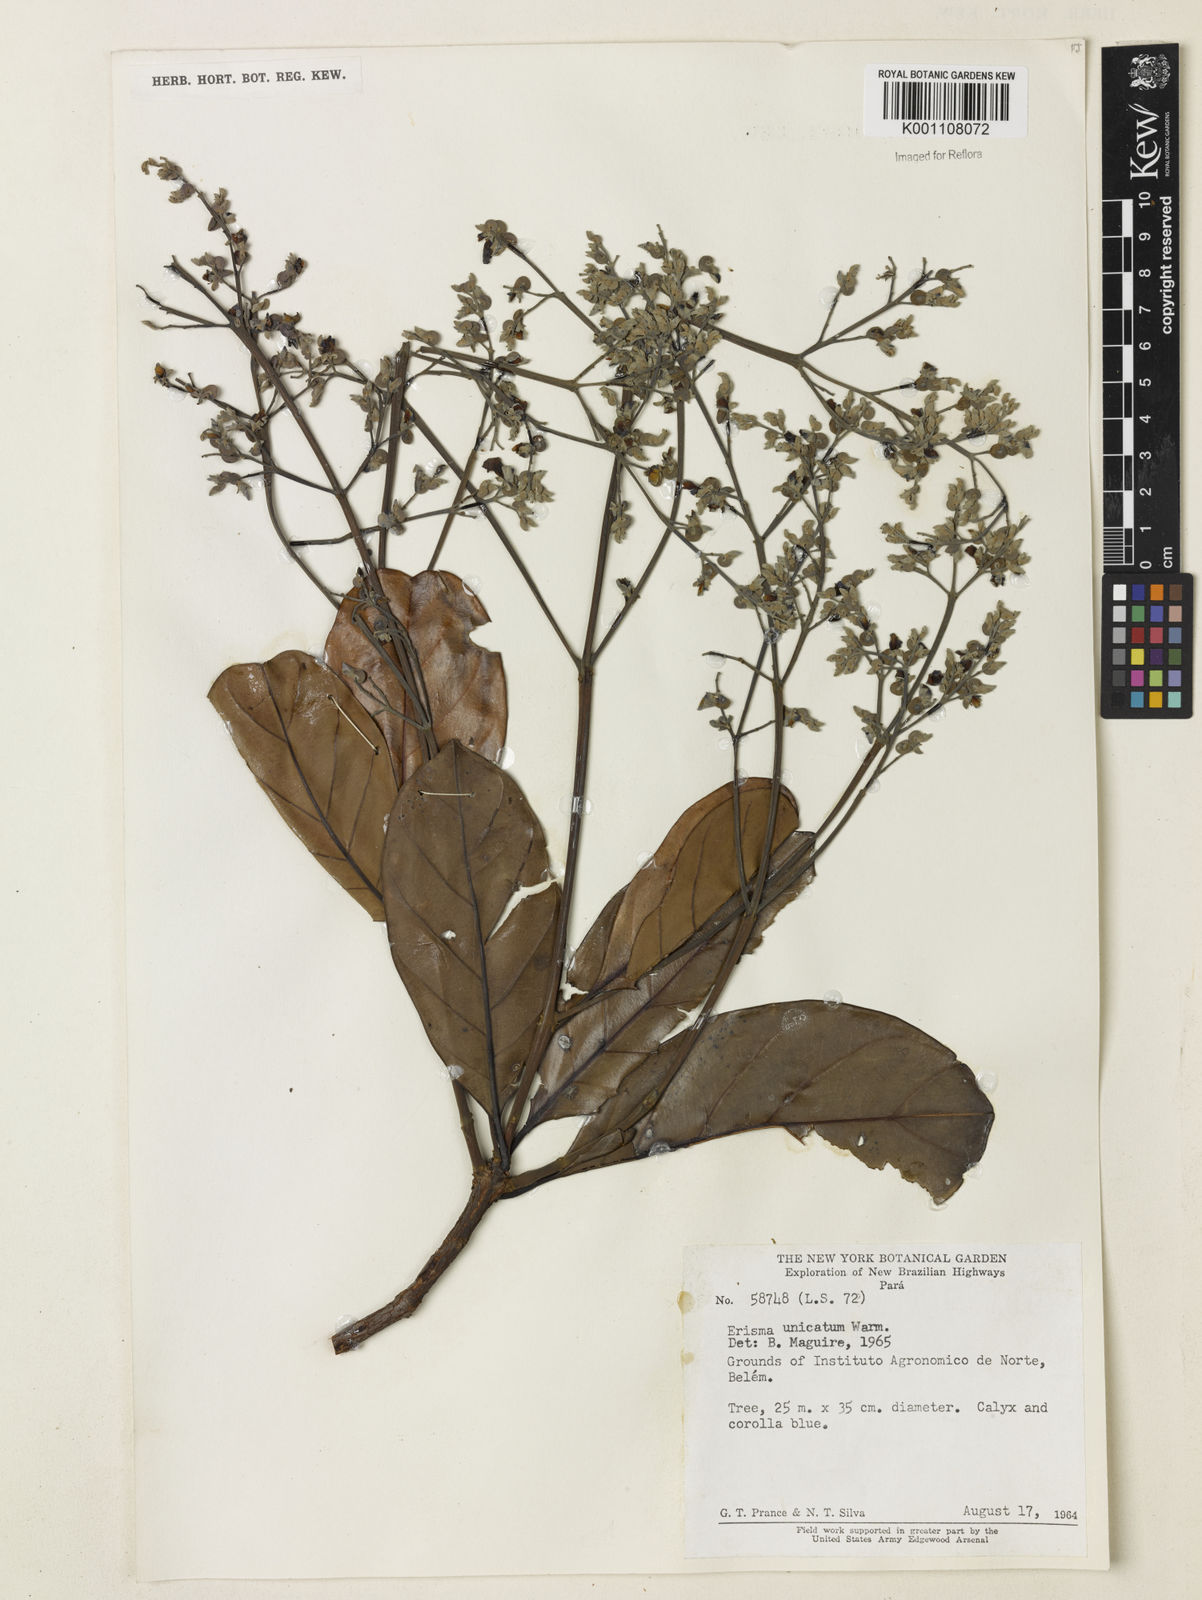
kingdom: Plantae
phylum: Tracheophyta
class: Magnoliopsida
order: Myrtales
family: Vochysiaceae
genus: Erisma
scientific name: Erisma uncinatum
